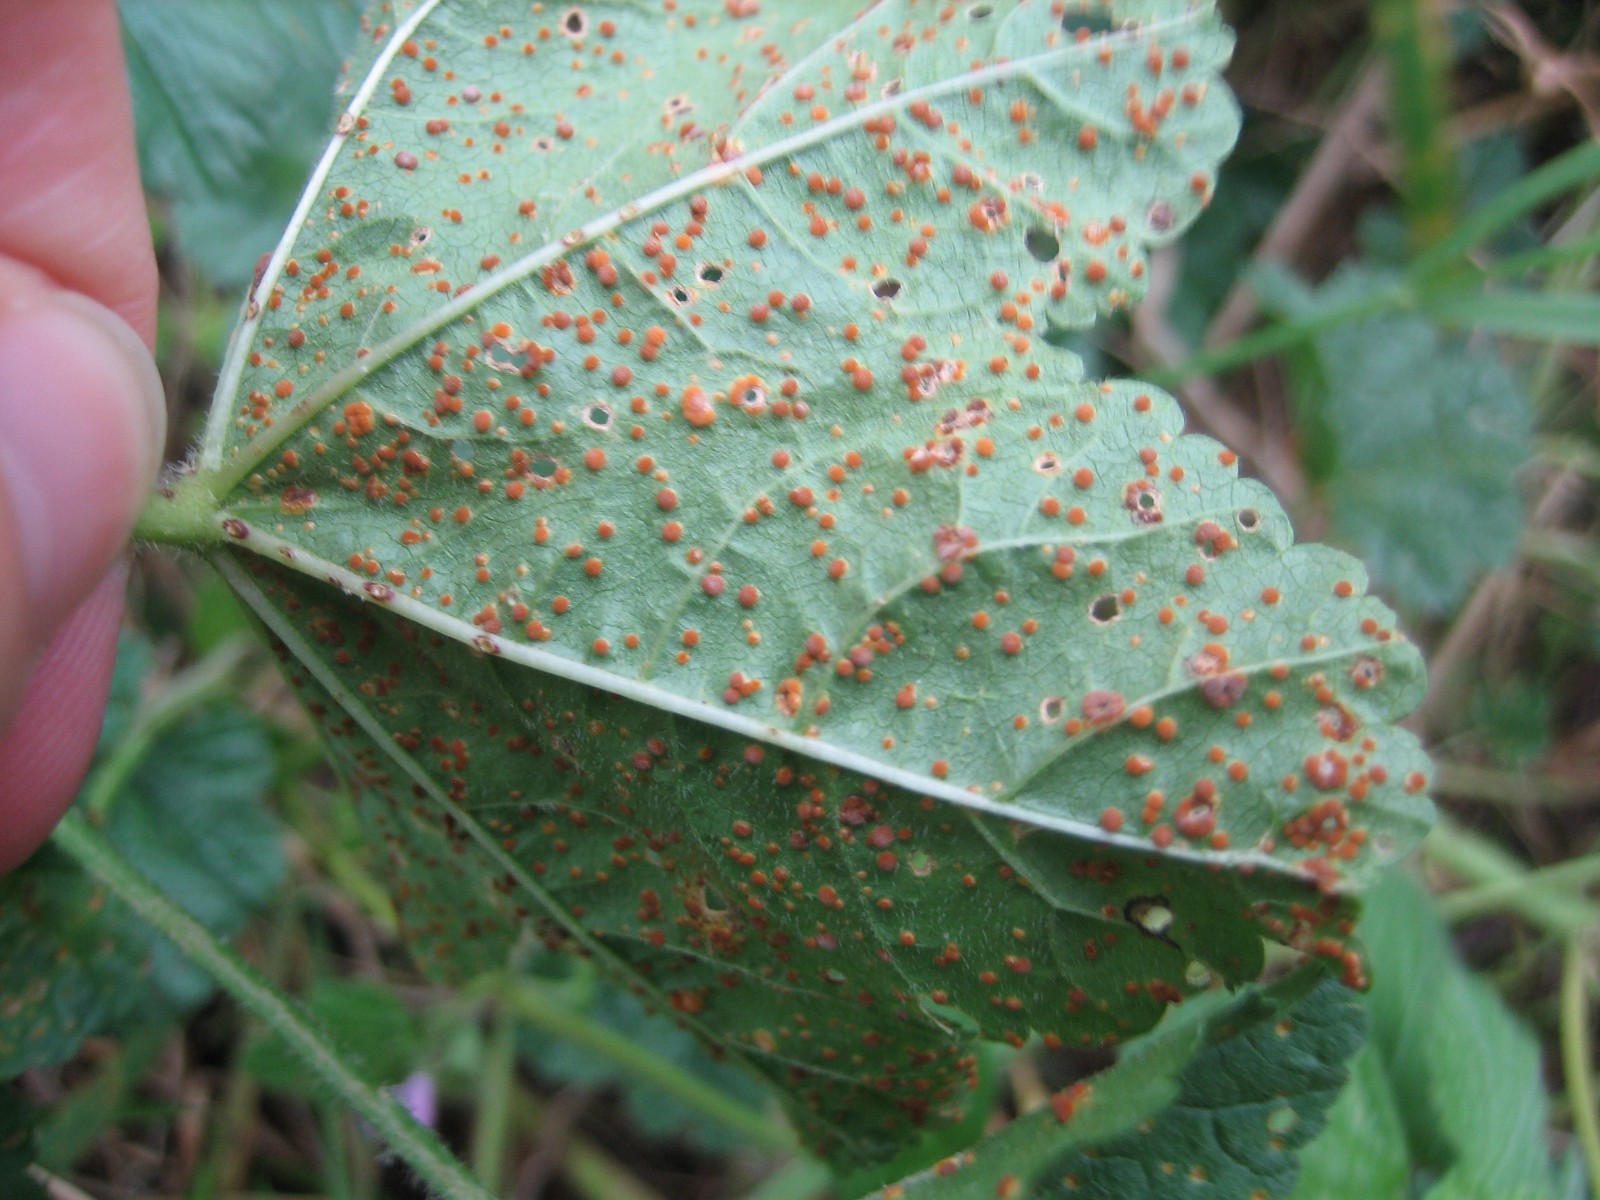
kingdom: Fungi
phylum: Basidiomycota
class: Pucciniomycetes
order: Pucciniales
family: Pucciniaceae
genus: Puccinia
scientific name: Puccinia malvacearum
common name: stokrose-tvecellerust
